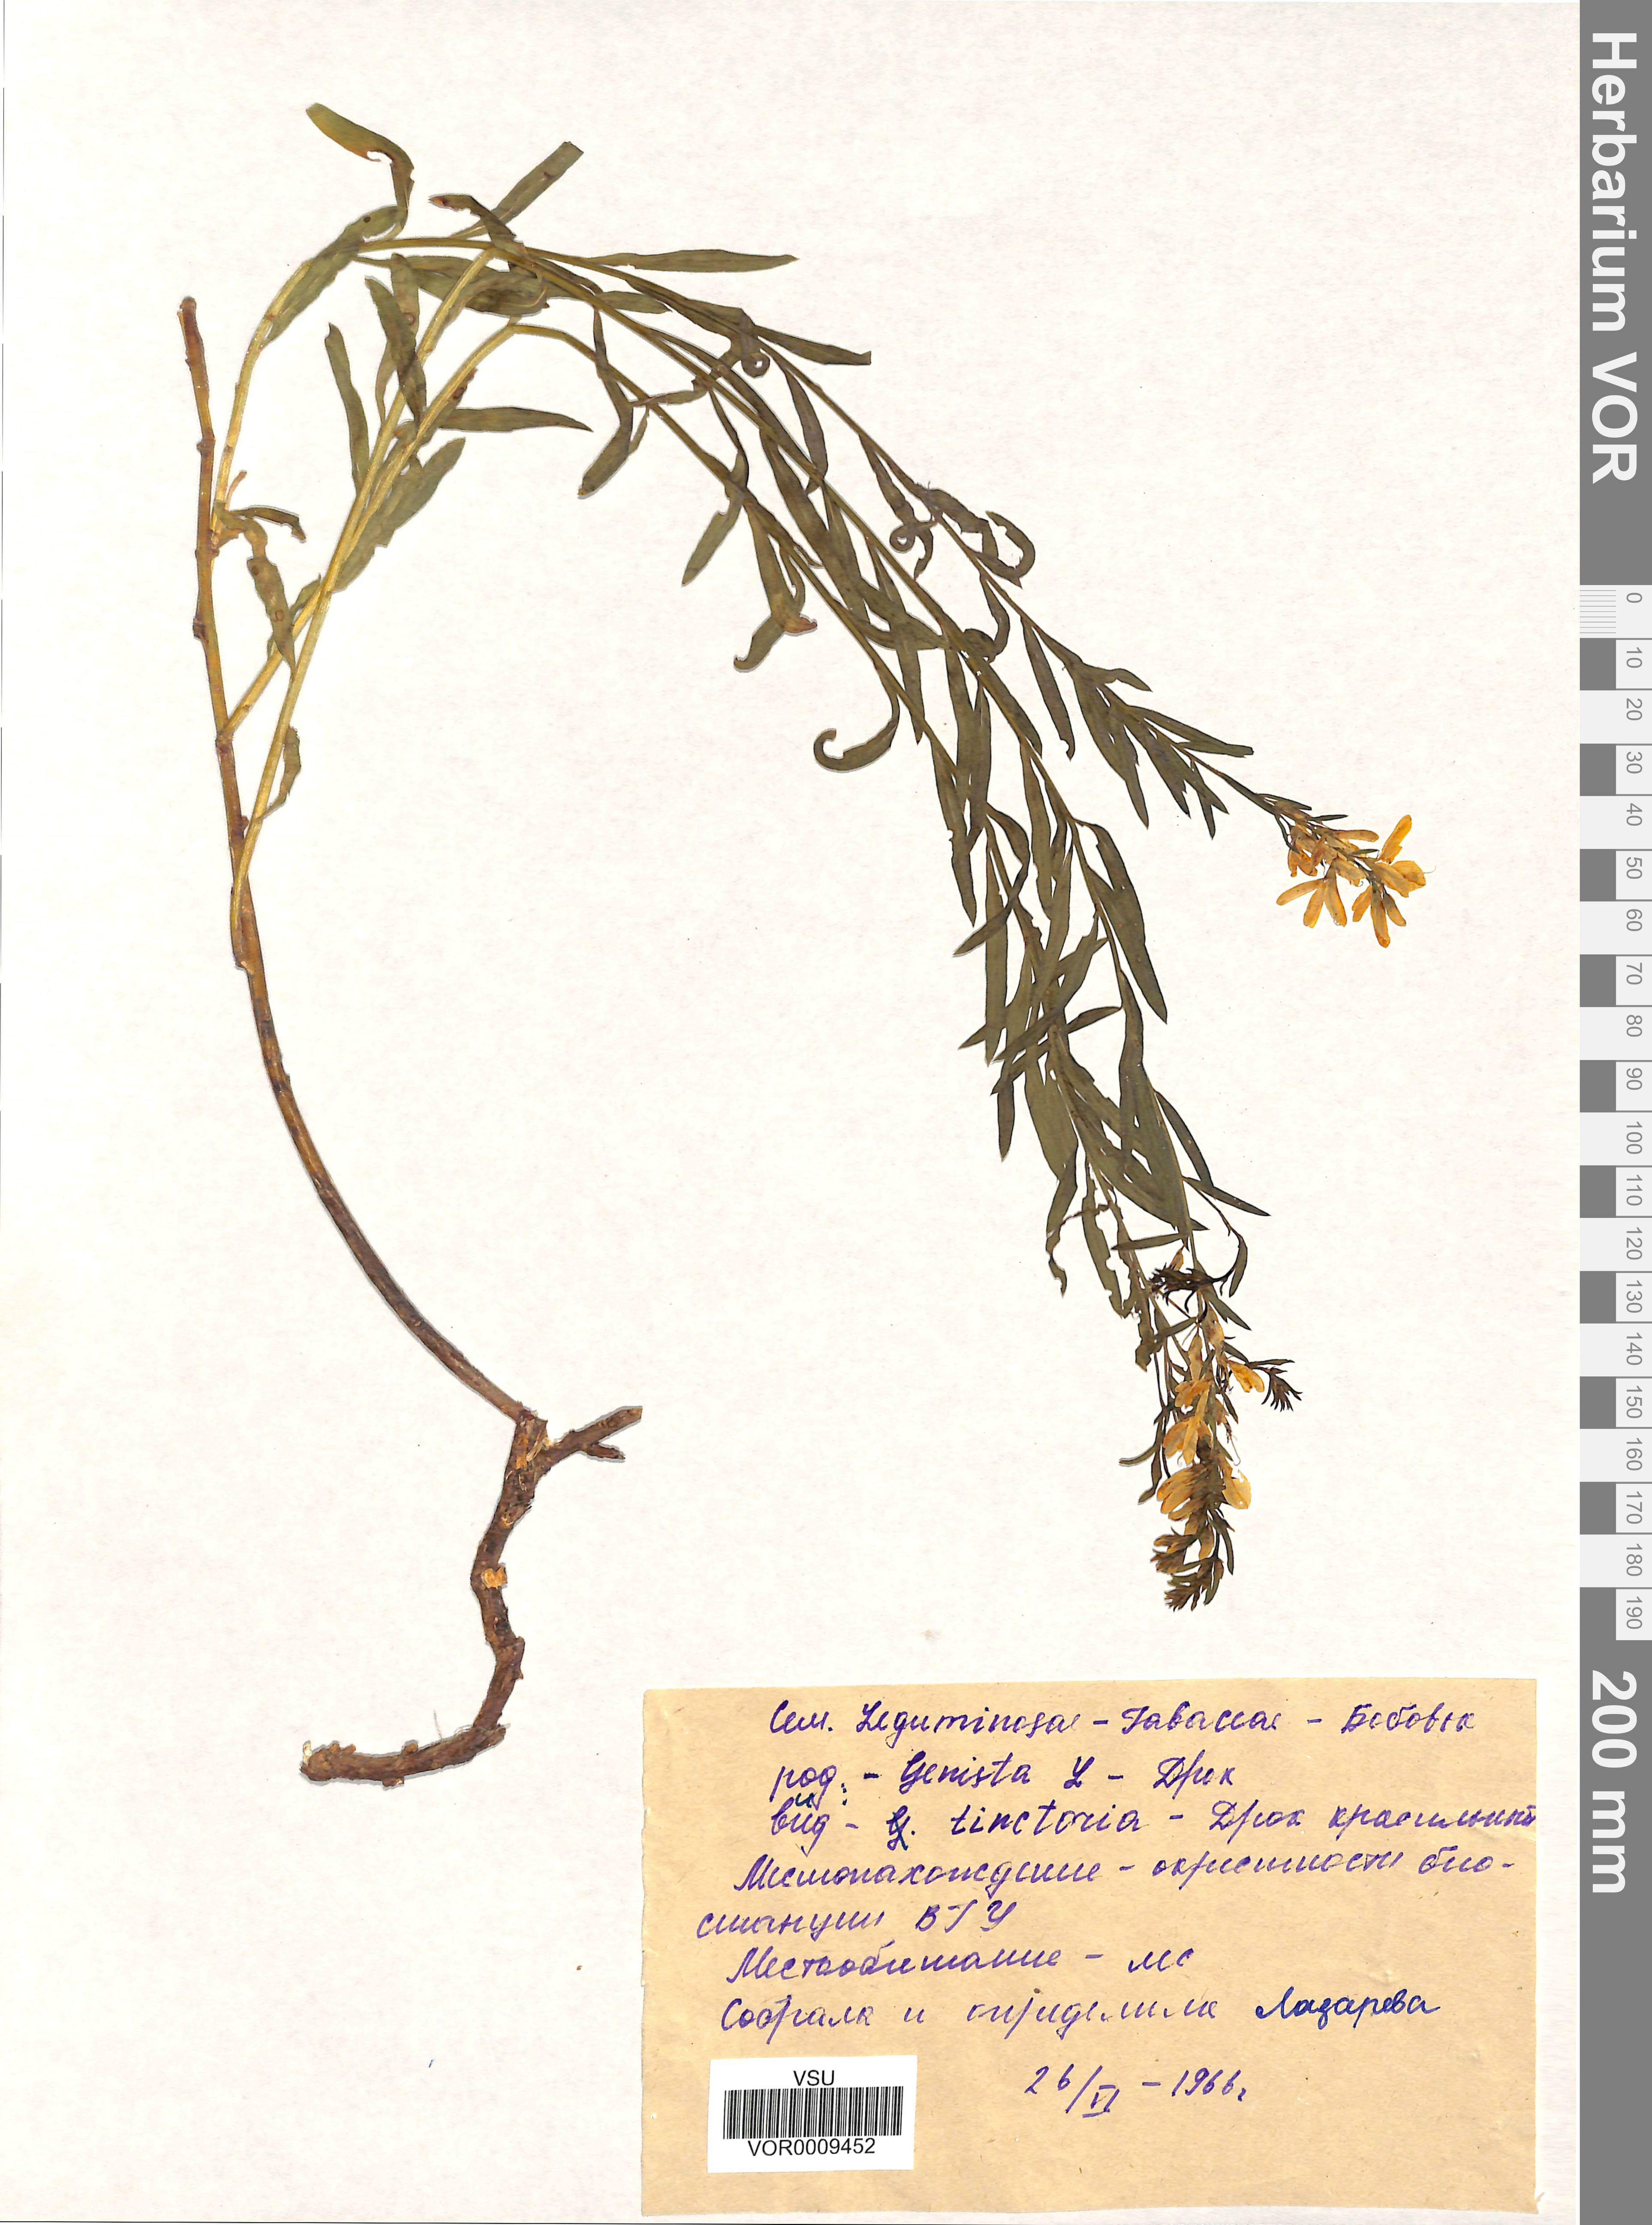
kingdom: Plantae
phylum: Tracheophyta
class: Magnoliopsida
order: Fabales
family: Fabaceae
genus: Genista
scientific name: Genista tinctoria
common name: Dyer's greenweed
